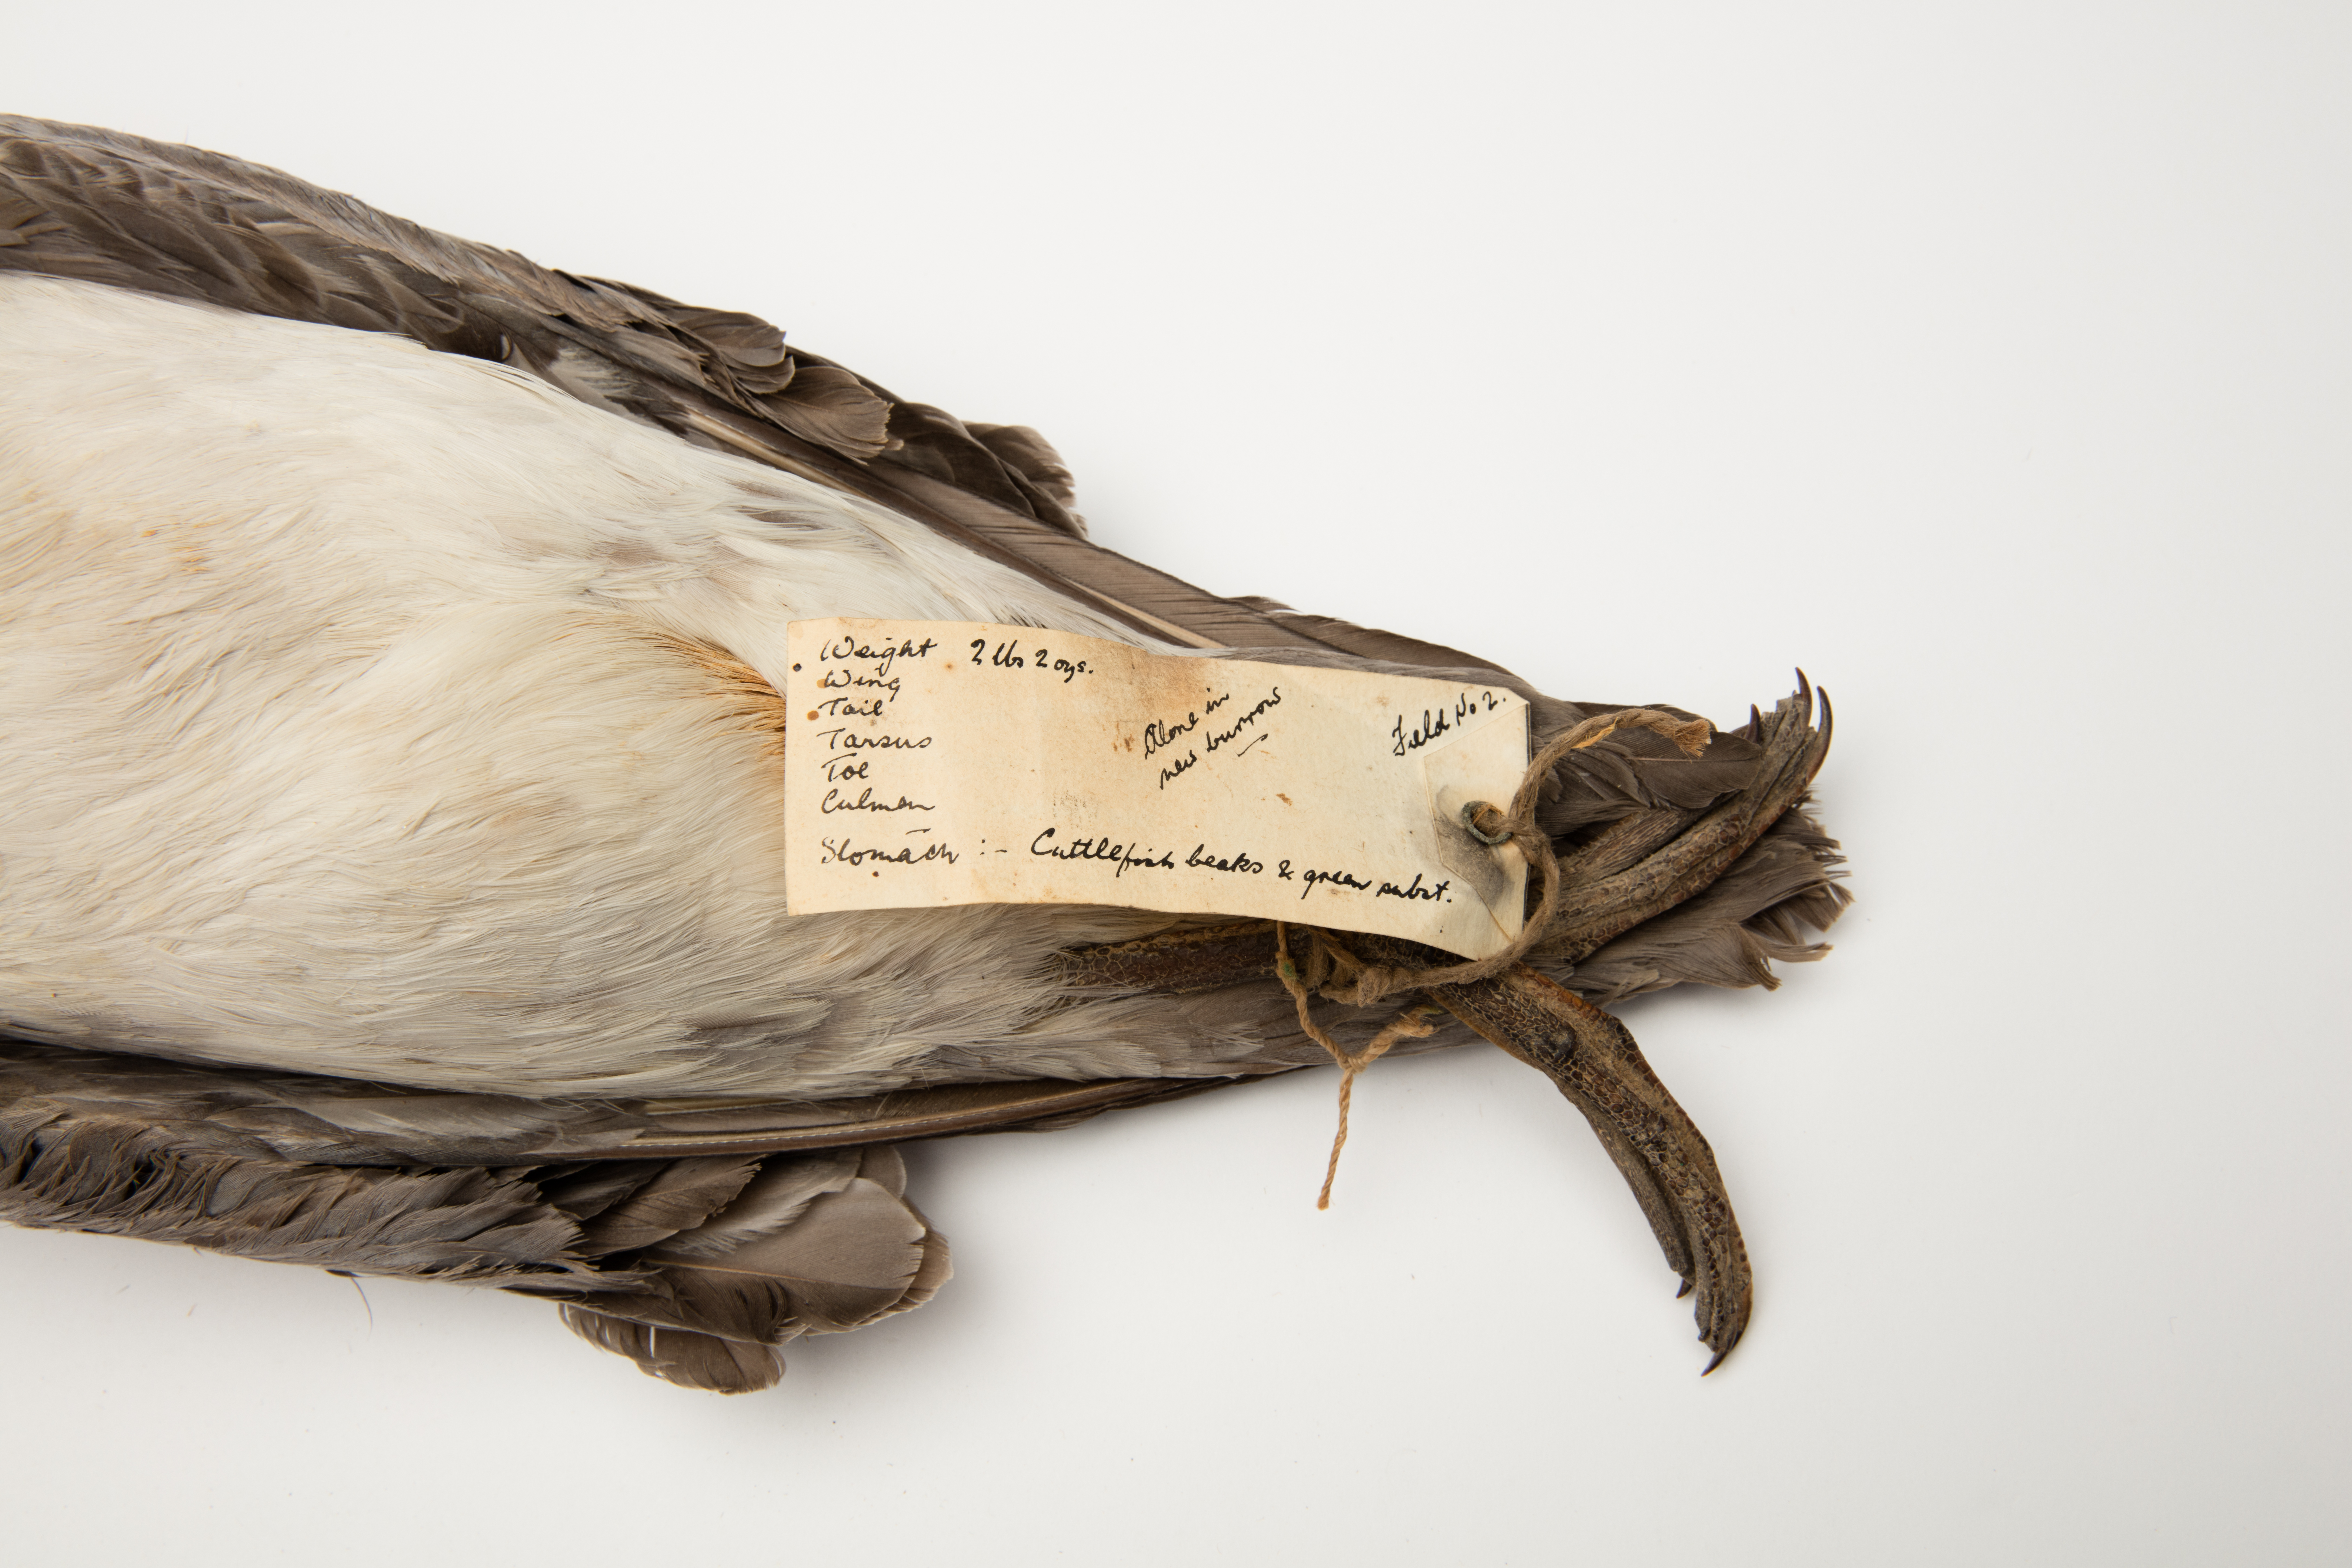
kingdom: Animalia
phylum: Chordata
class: Aves
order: Procellariiformes
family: Procellariidae
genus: Procellaria
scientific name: Procellaria cinerea
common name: Grey petrel
